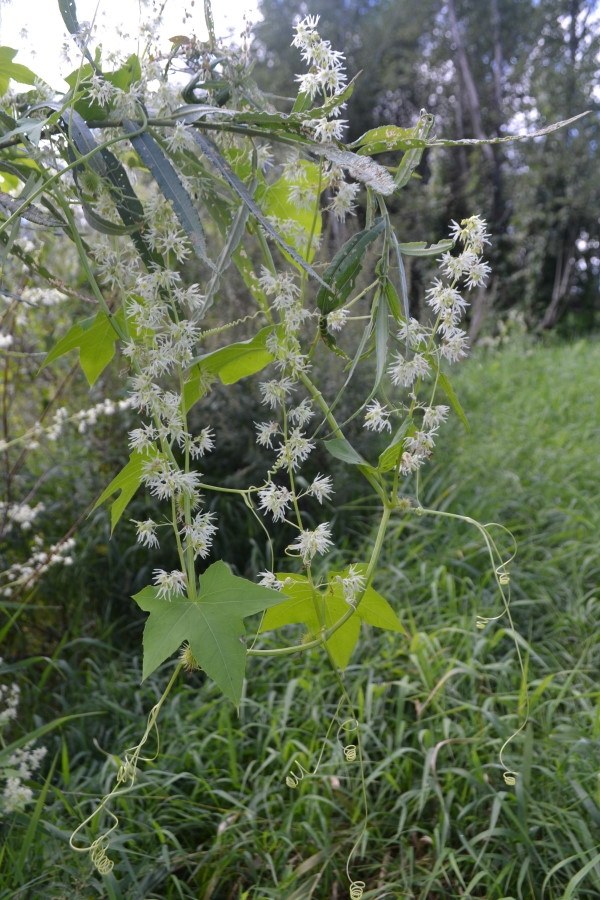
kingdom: Plantae
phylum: Tracheophyta
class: Magnoliopsida
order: Cucurbitales
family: Cucurbitaceae
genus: Echinocystis
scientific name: Echinocystis lobata
